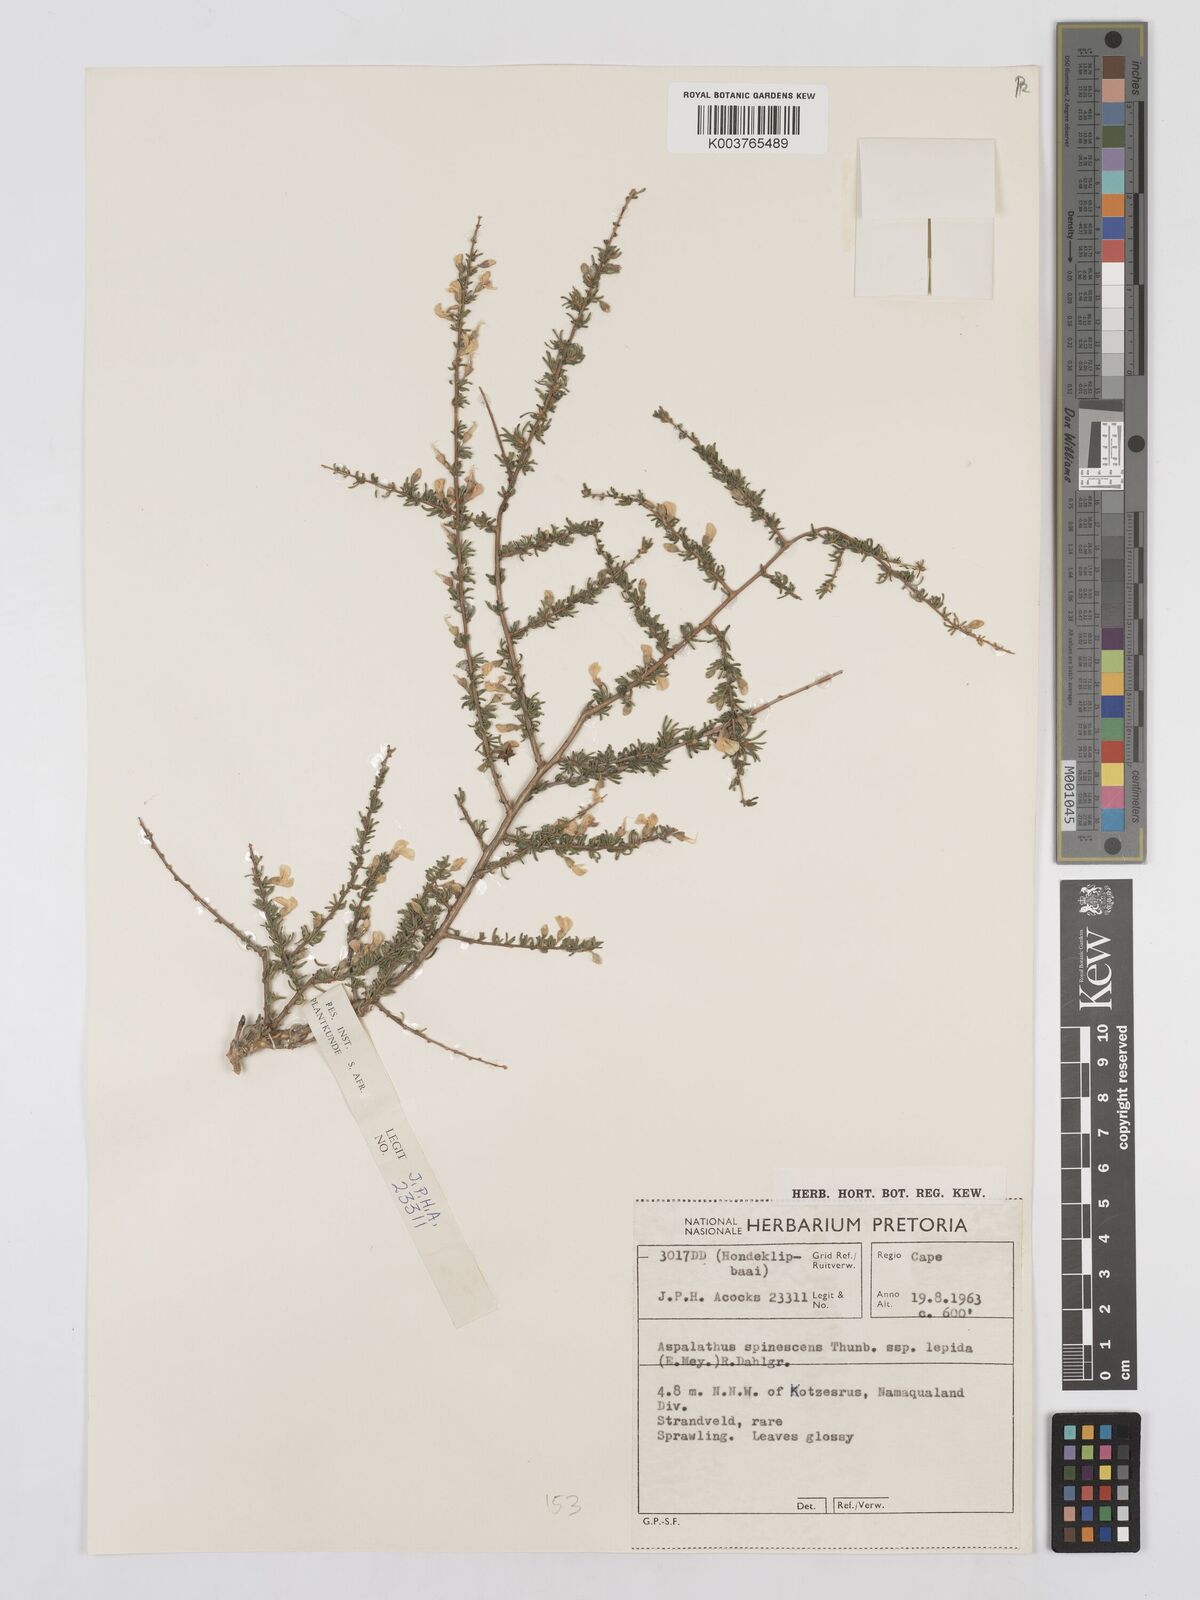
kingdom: Plantae
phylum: Tracheophyta
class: Magnoliopsida
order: Fabales
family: Fabaceae
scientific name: Fabaceae
